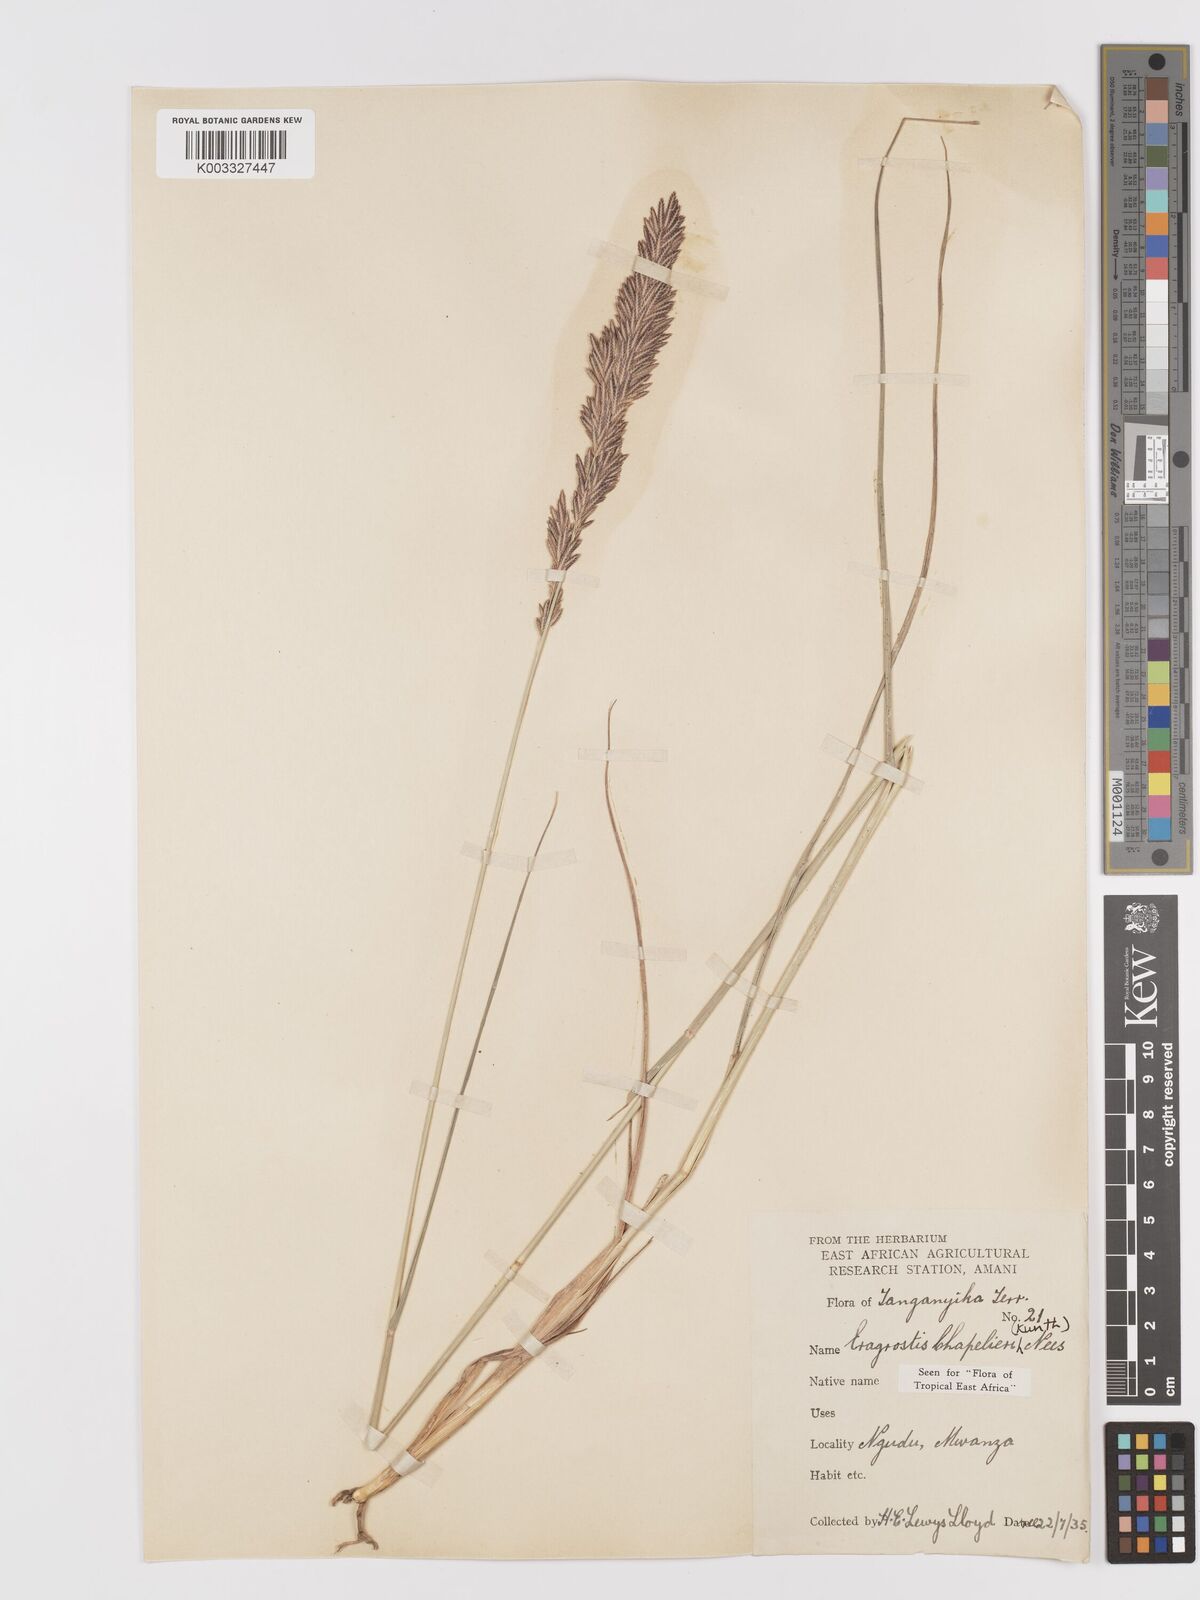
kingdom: Plantae
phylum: Tracheophyta
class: Liliopsida
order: Poales
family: Poaceae
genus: Eragrostis
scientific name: Eragrostis chapelieri
